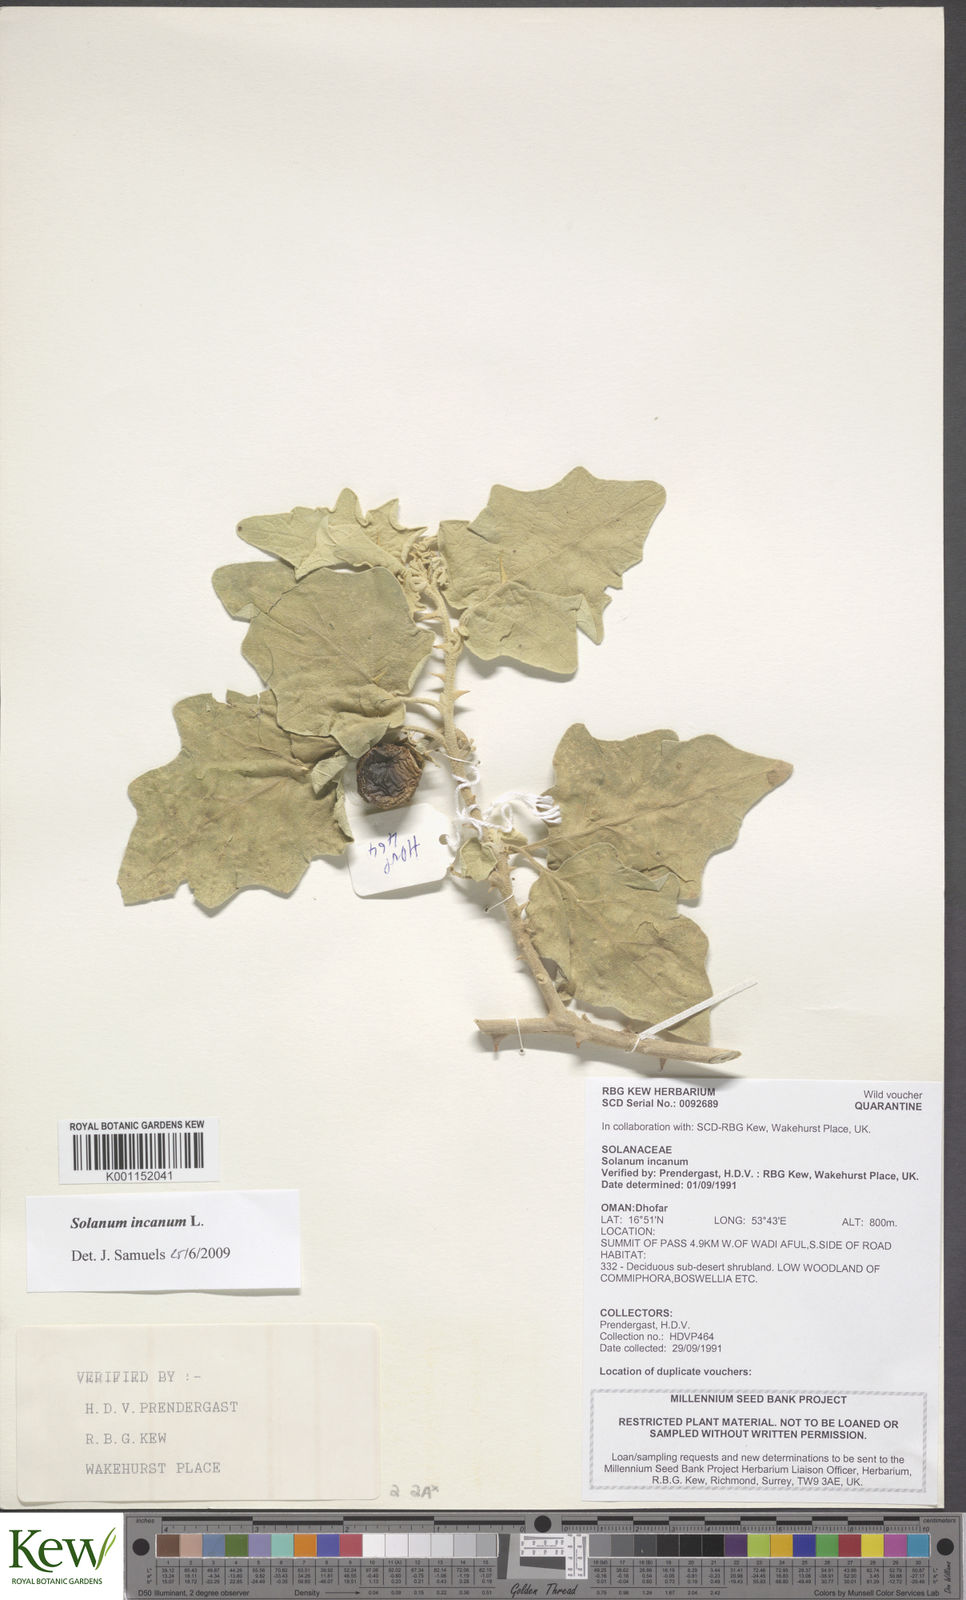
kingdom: Plantae
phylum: Tracheophyta
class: Magnoliopsida
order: Solanales
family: Solanaceae
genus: Solanum
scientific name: Solanum incanum
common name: Bitter apple
